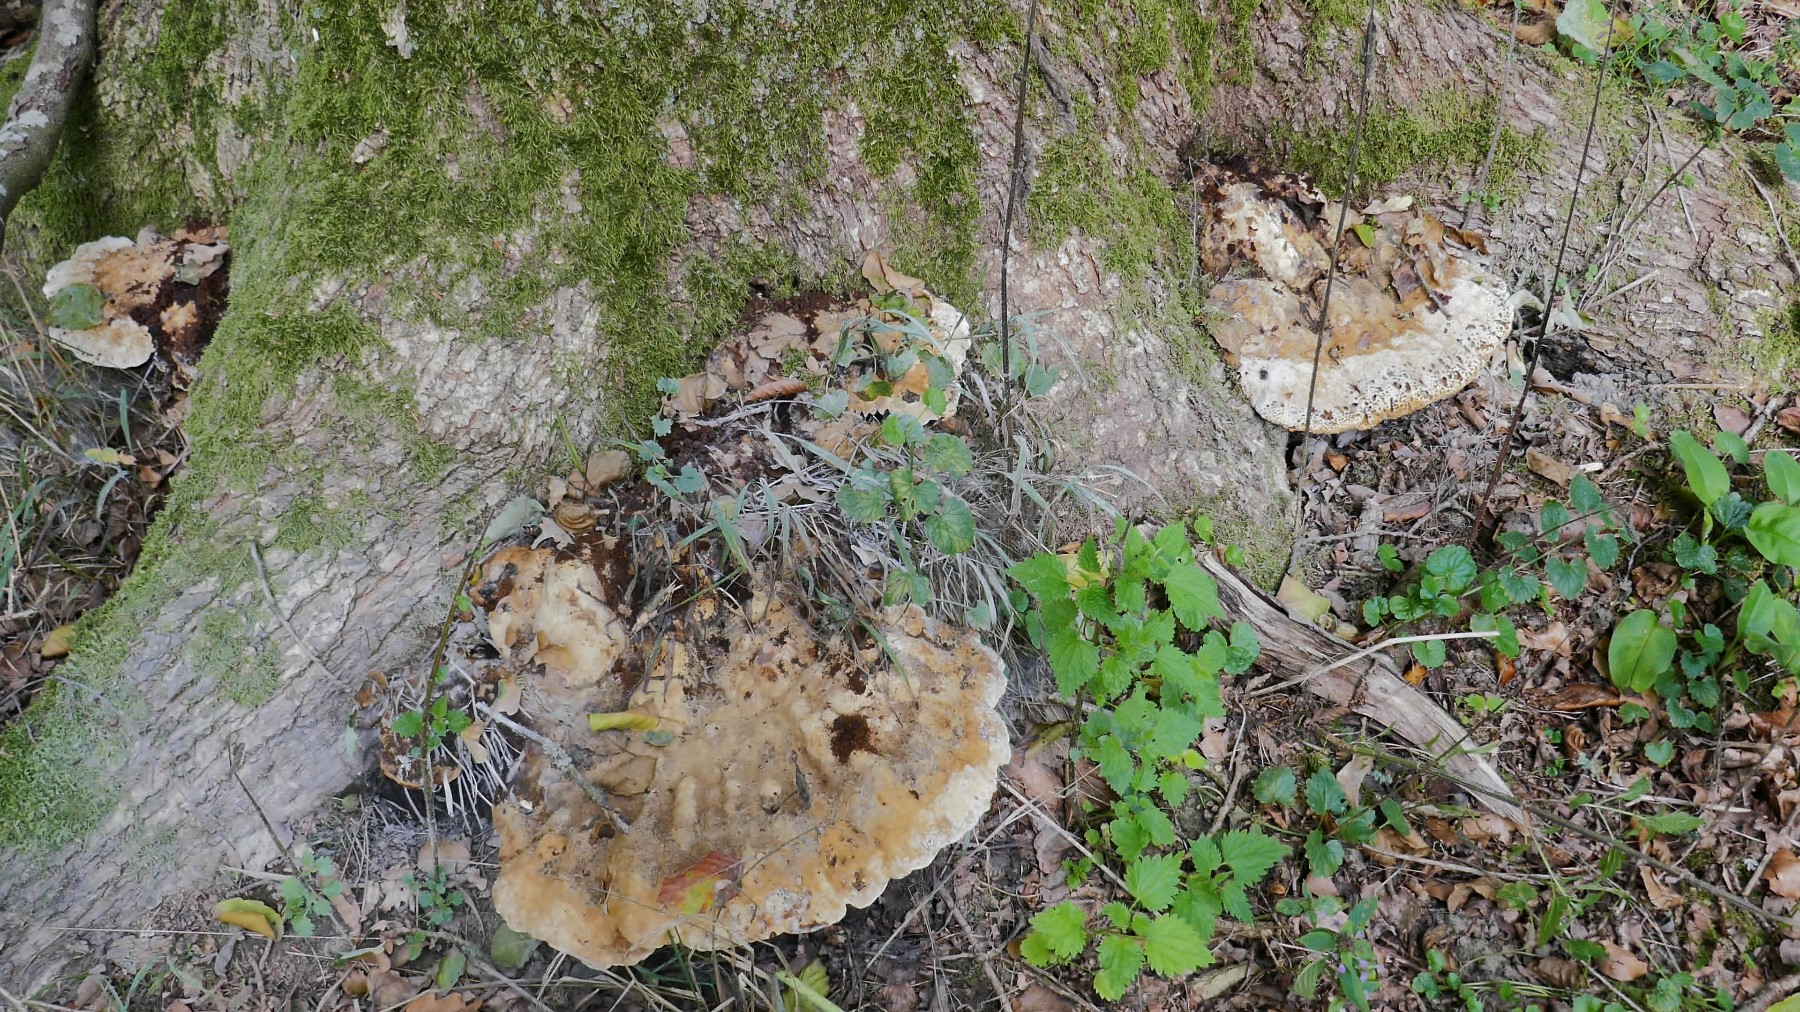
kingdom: Fungi
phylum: Basidiomycota
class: Agaricomycetes
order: Hymenochaetales
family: Hymenochaetaceae
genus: Pseudoinonotus
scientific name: Pseudoinonotus dryadeus
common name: ege-spejlporesvamp
